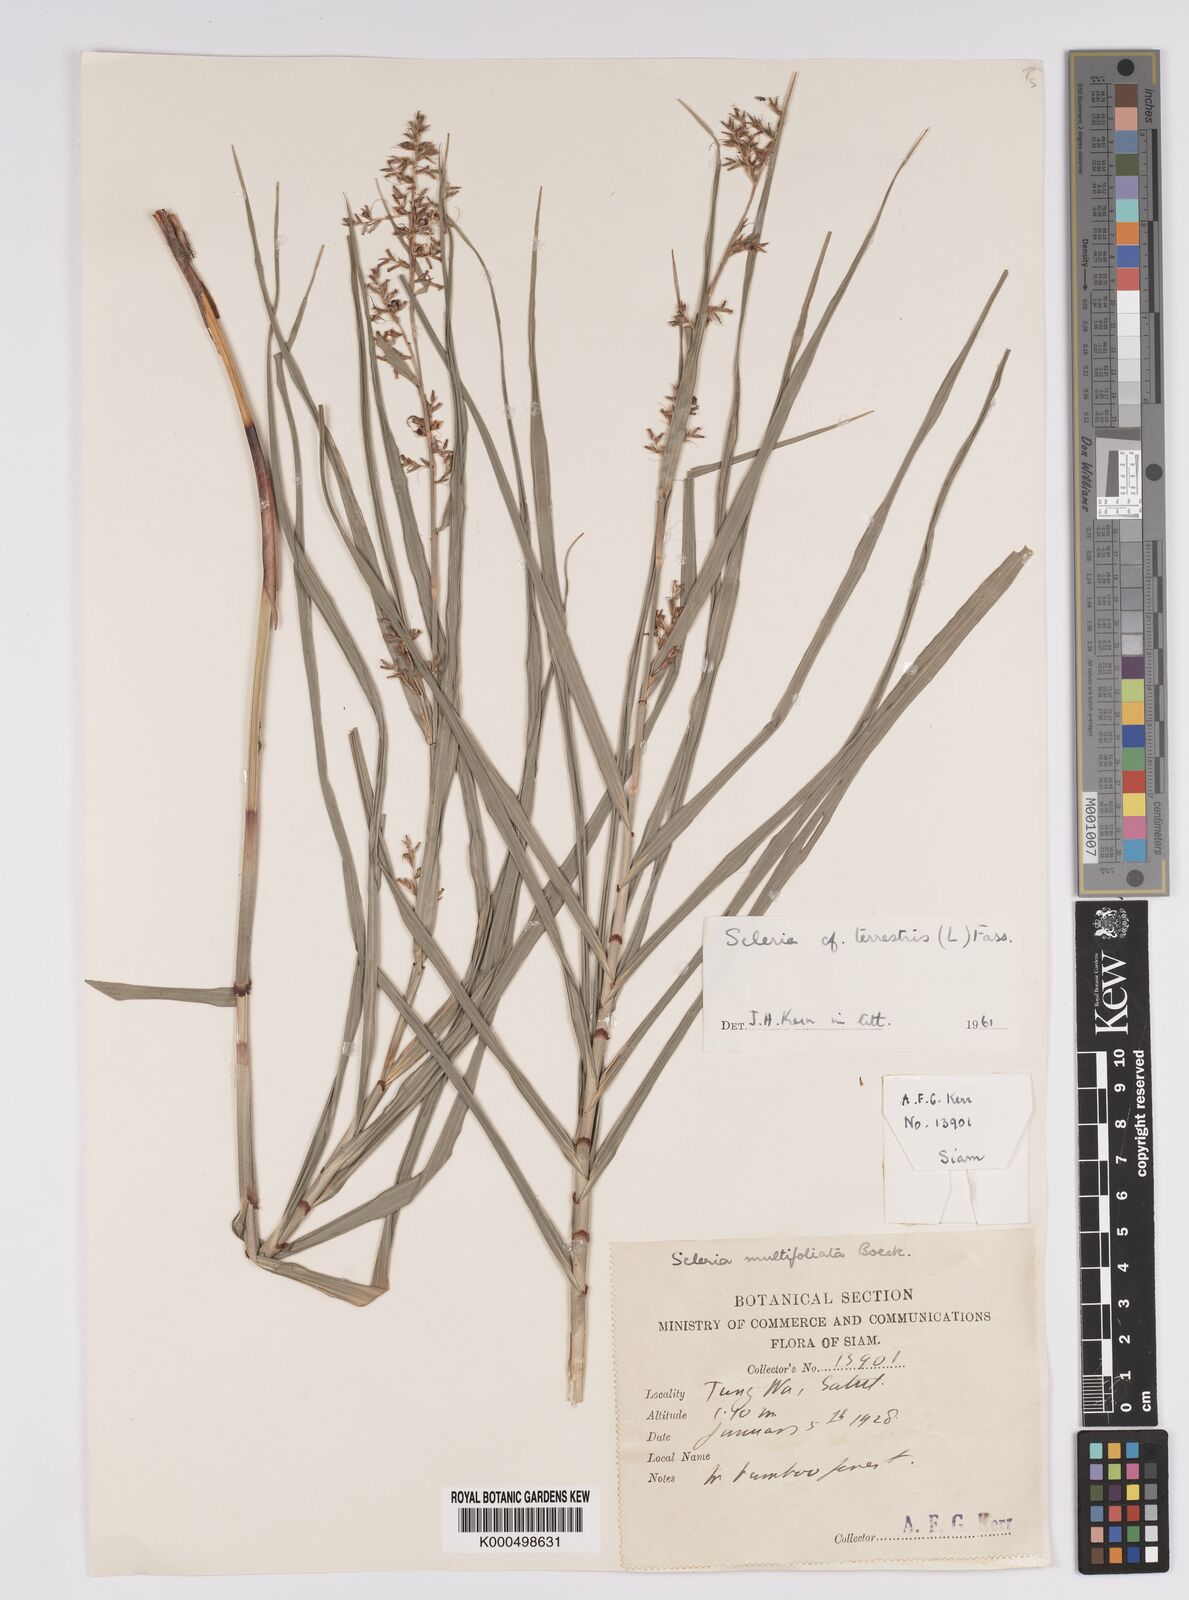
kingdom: Plantae
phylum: Tracheophyta
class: Liliopsida
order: Poales
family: Cyperaceae
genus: Scleria
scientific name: Scleria terrestris
